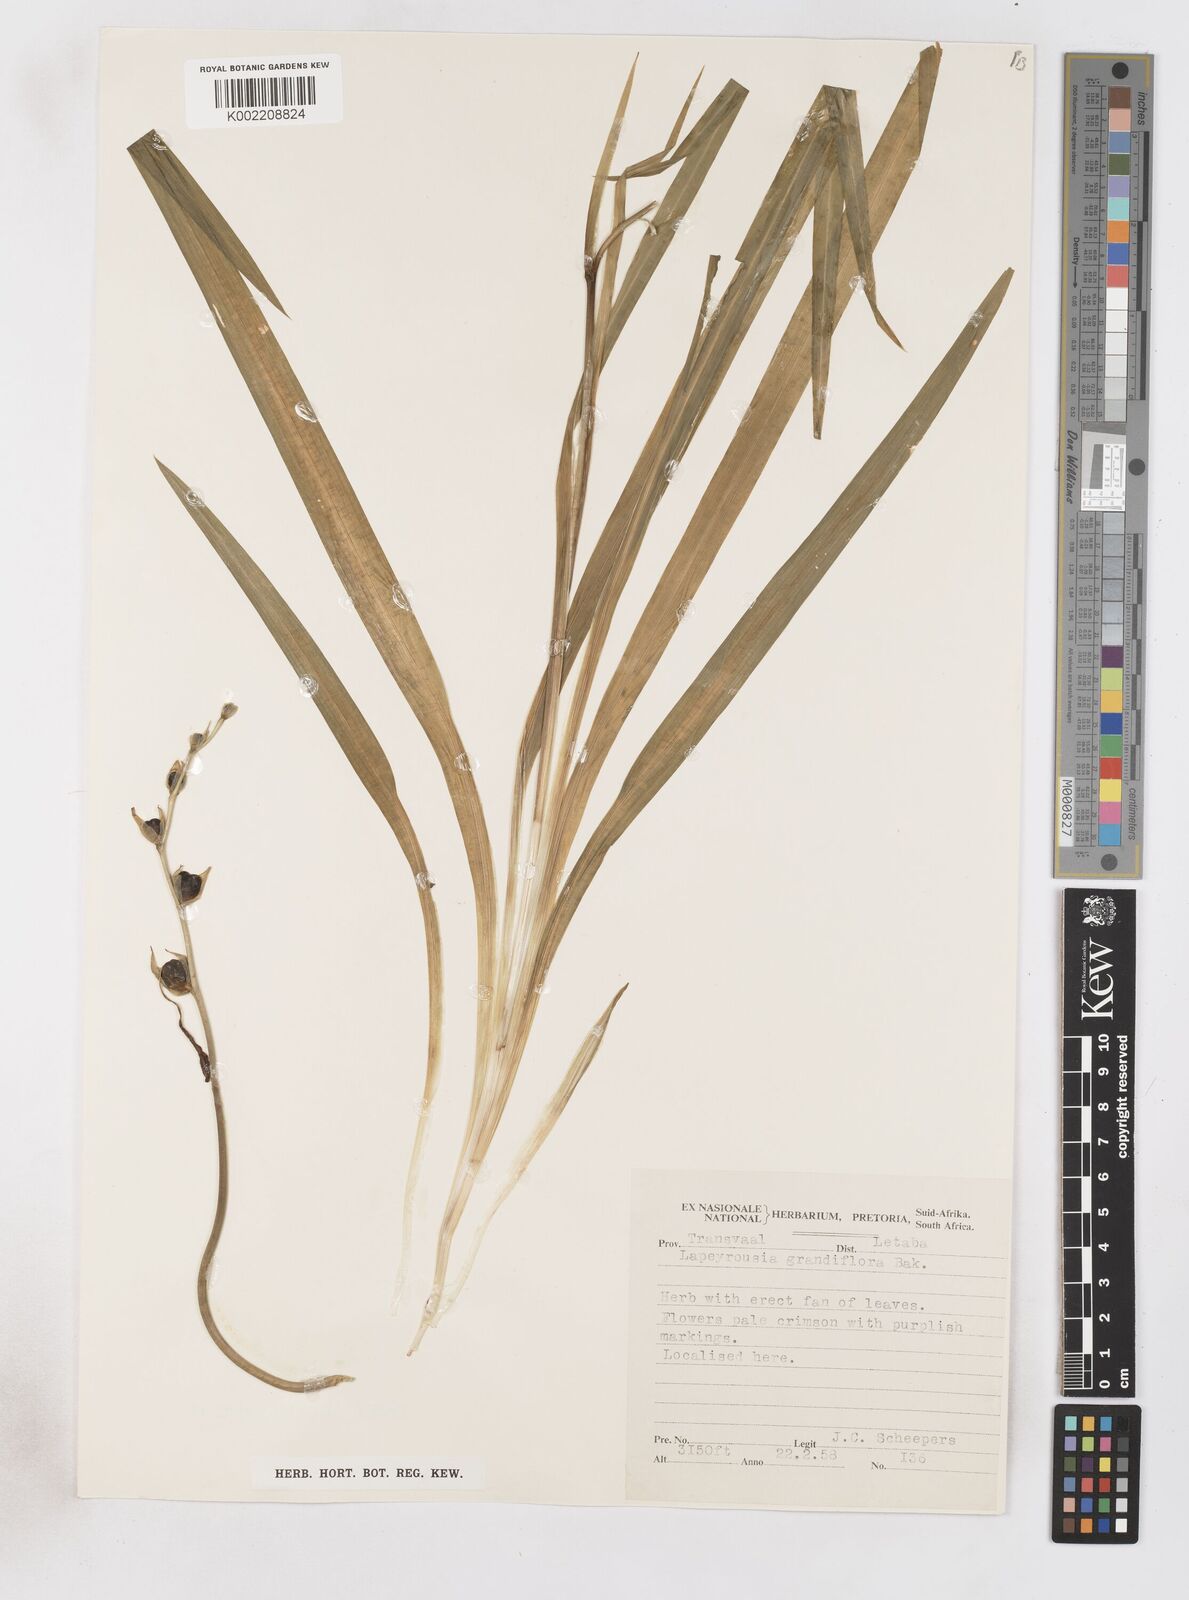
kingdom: Plantae
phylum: Tracheophyta
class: Liliopsida
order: Asparagales
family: Iridaceae
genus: Freesia
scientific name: Freesia grandiflora
